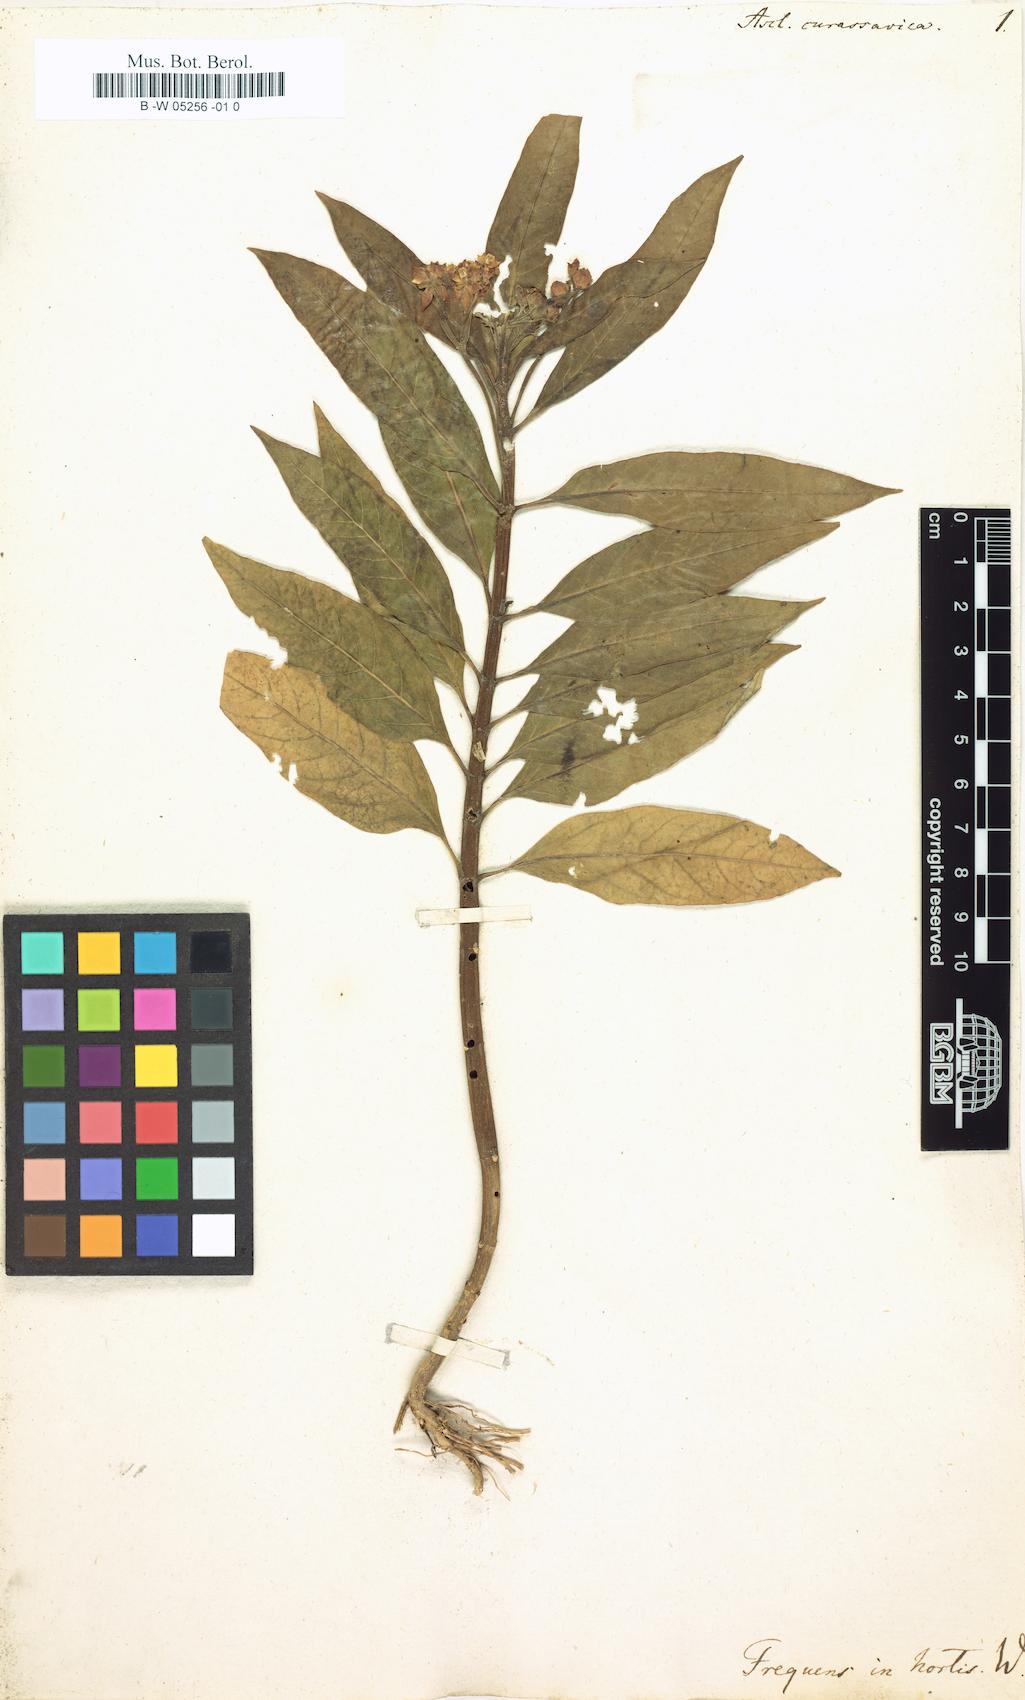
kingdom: Plantae
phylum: Tracheophyta
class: Magnoliopsida
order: Gentianales
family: Apocynaceae
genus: Asclepias
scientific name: Asclepias curassavica
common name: Bloodflower
